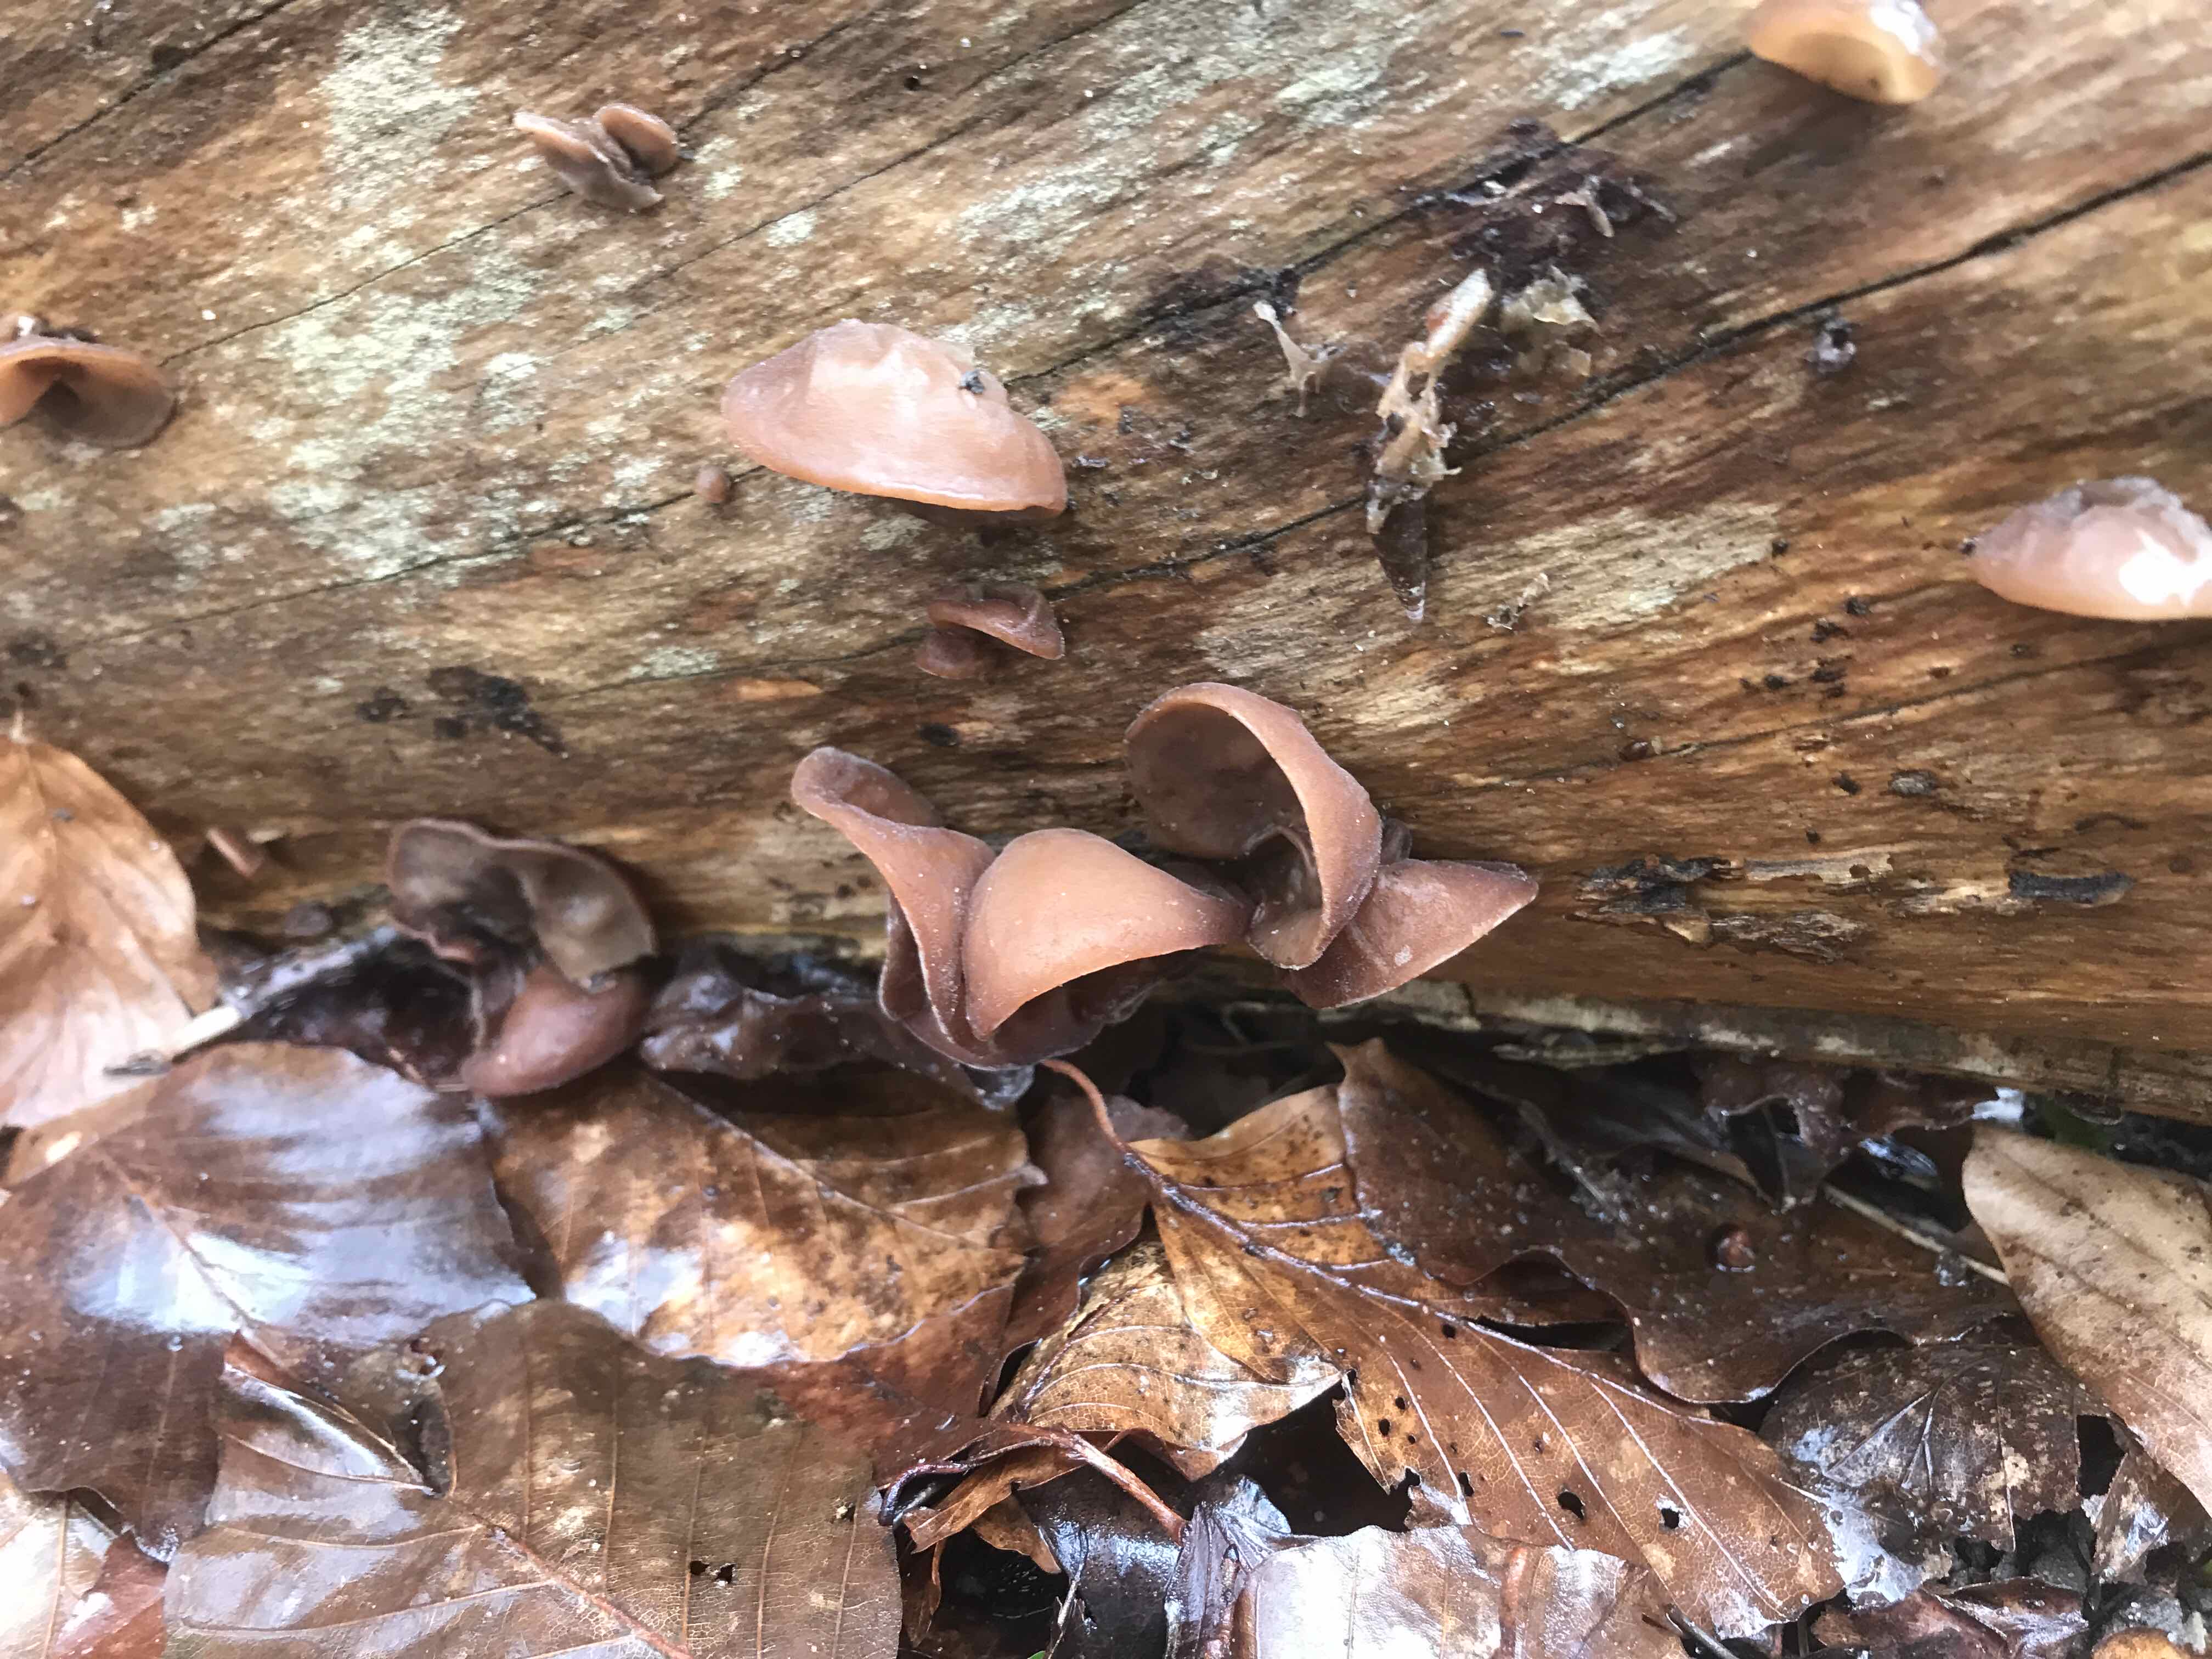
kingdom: Fungi
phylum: Basidiomycota
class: Agaricomycetes
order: Auriculariales
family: Auriculariaceae
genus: Auricularia
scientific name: Auricularia auricula-judae
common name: almindelig judasøre
